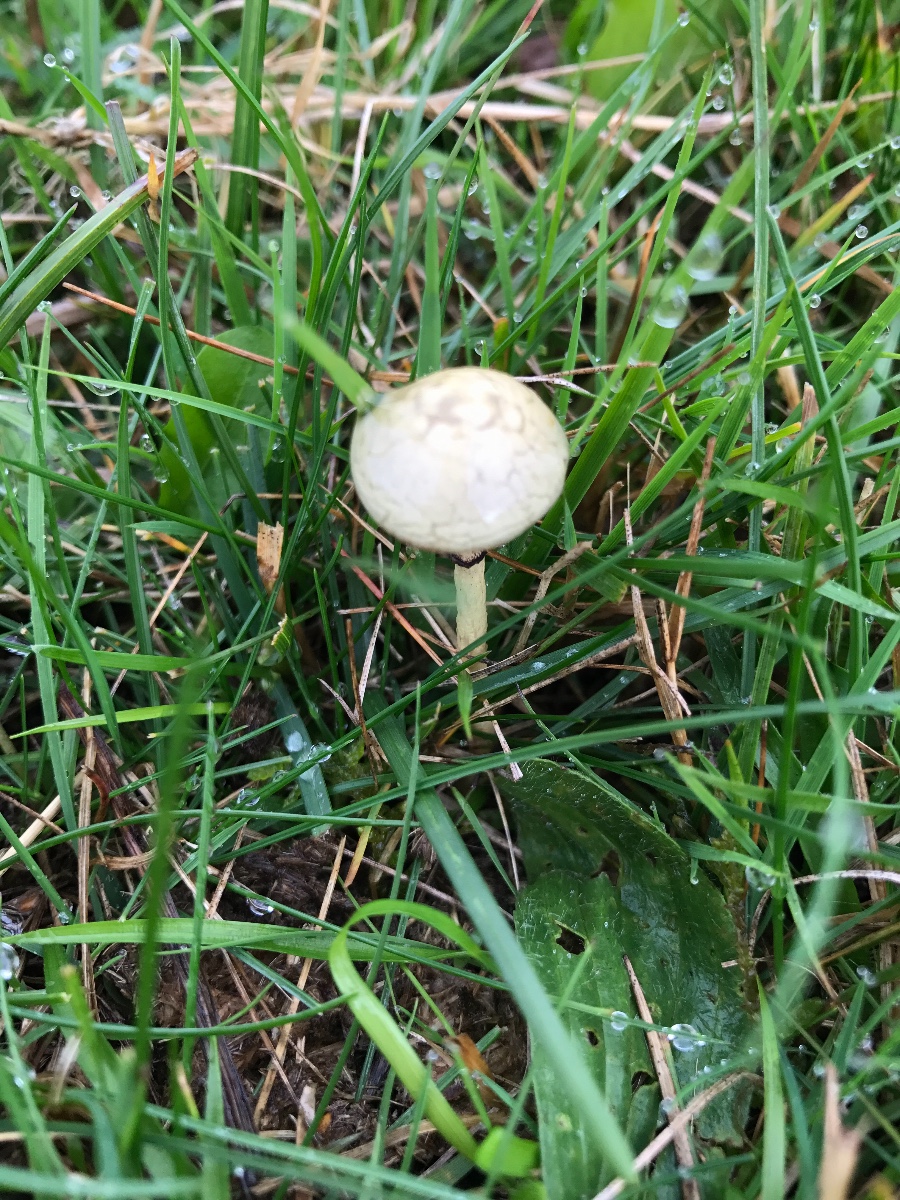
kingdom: Fungi
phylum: Basidiomycota
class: Agaricomycetes
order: Agaricales
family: Strophariaceae
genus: Protostropharia
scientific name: Protostropharia semiglobata
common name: halvkugleformet bredblad
